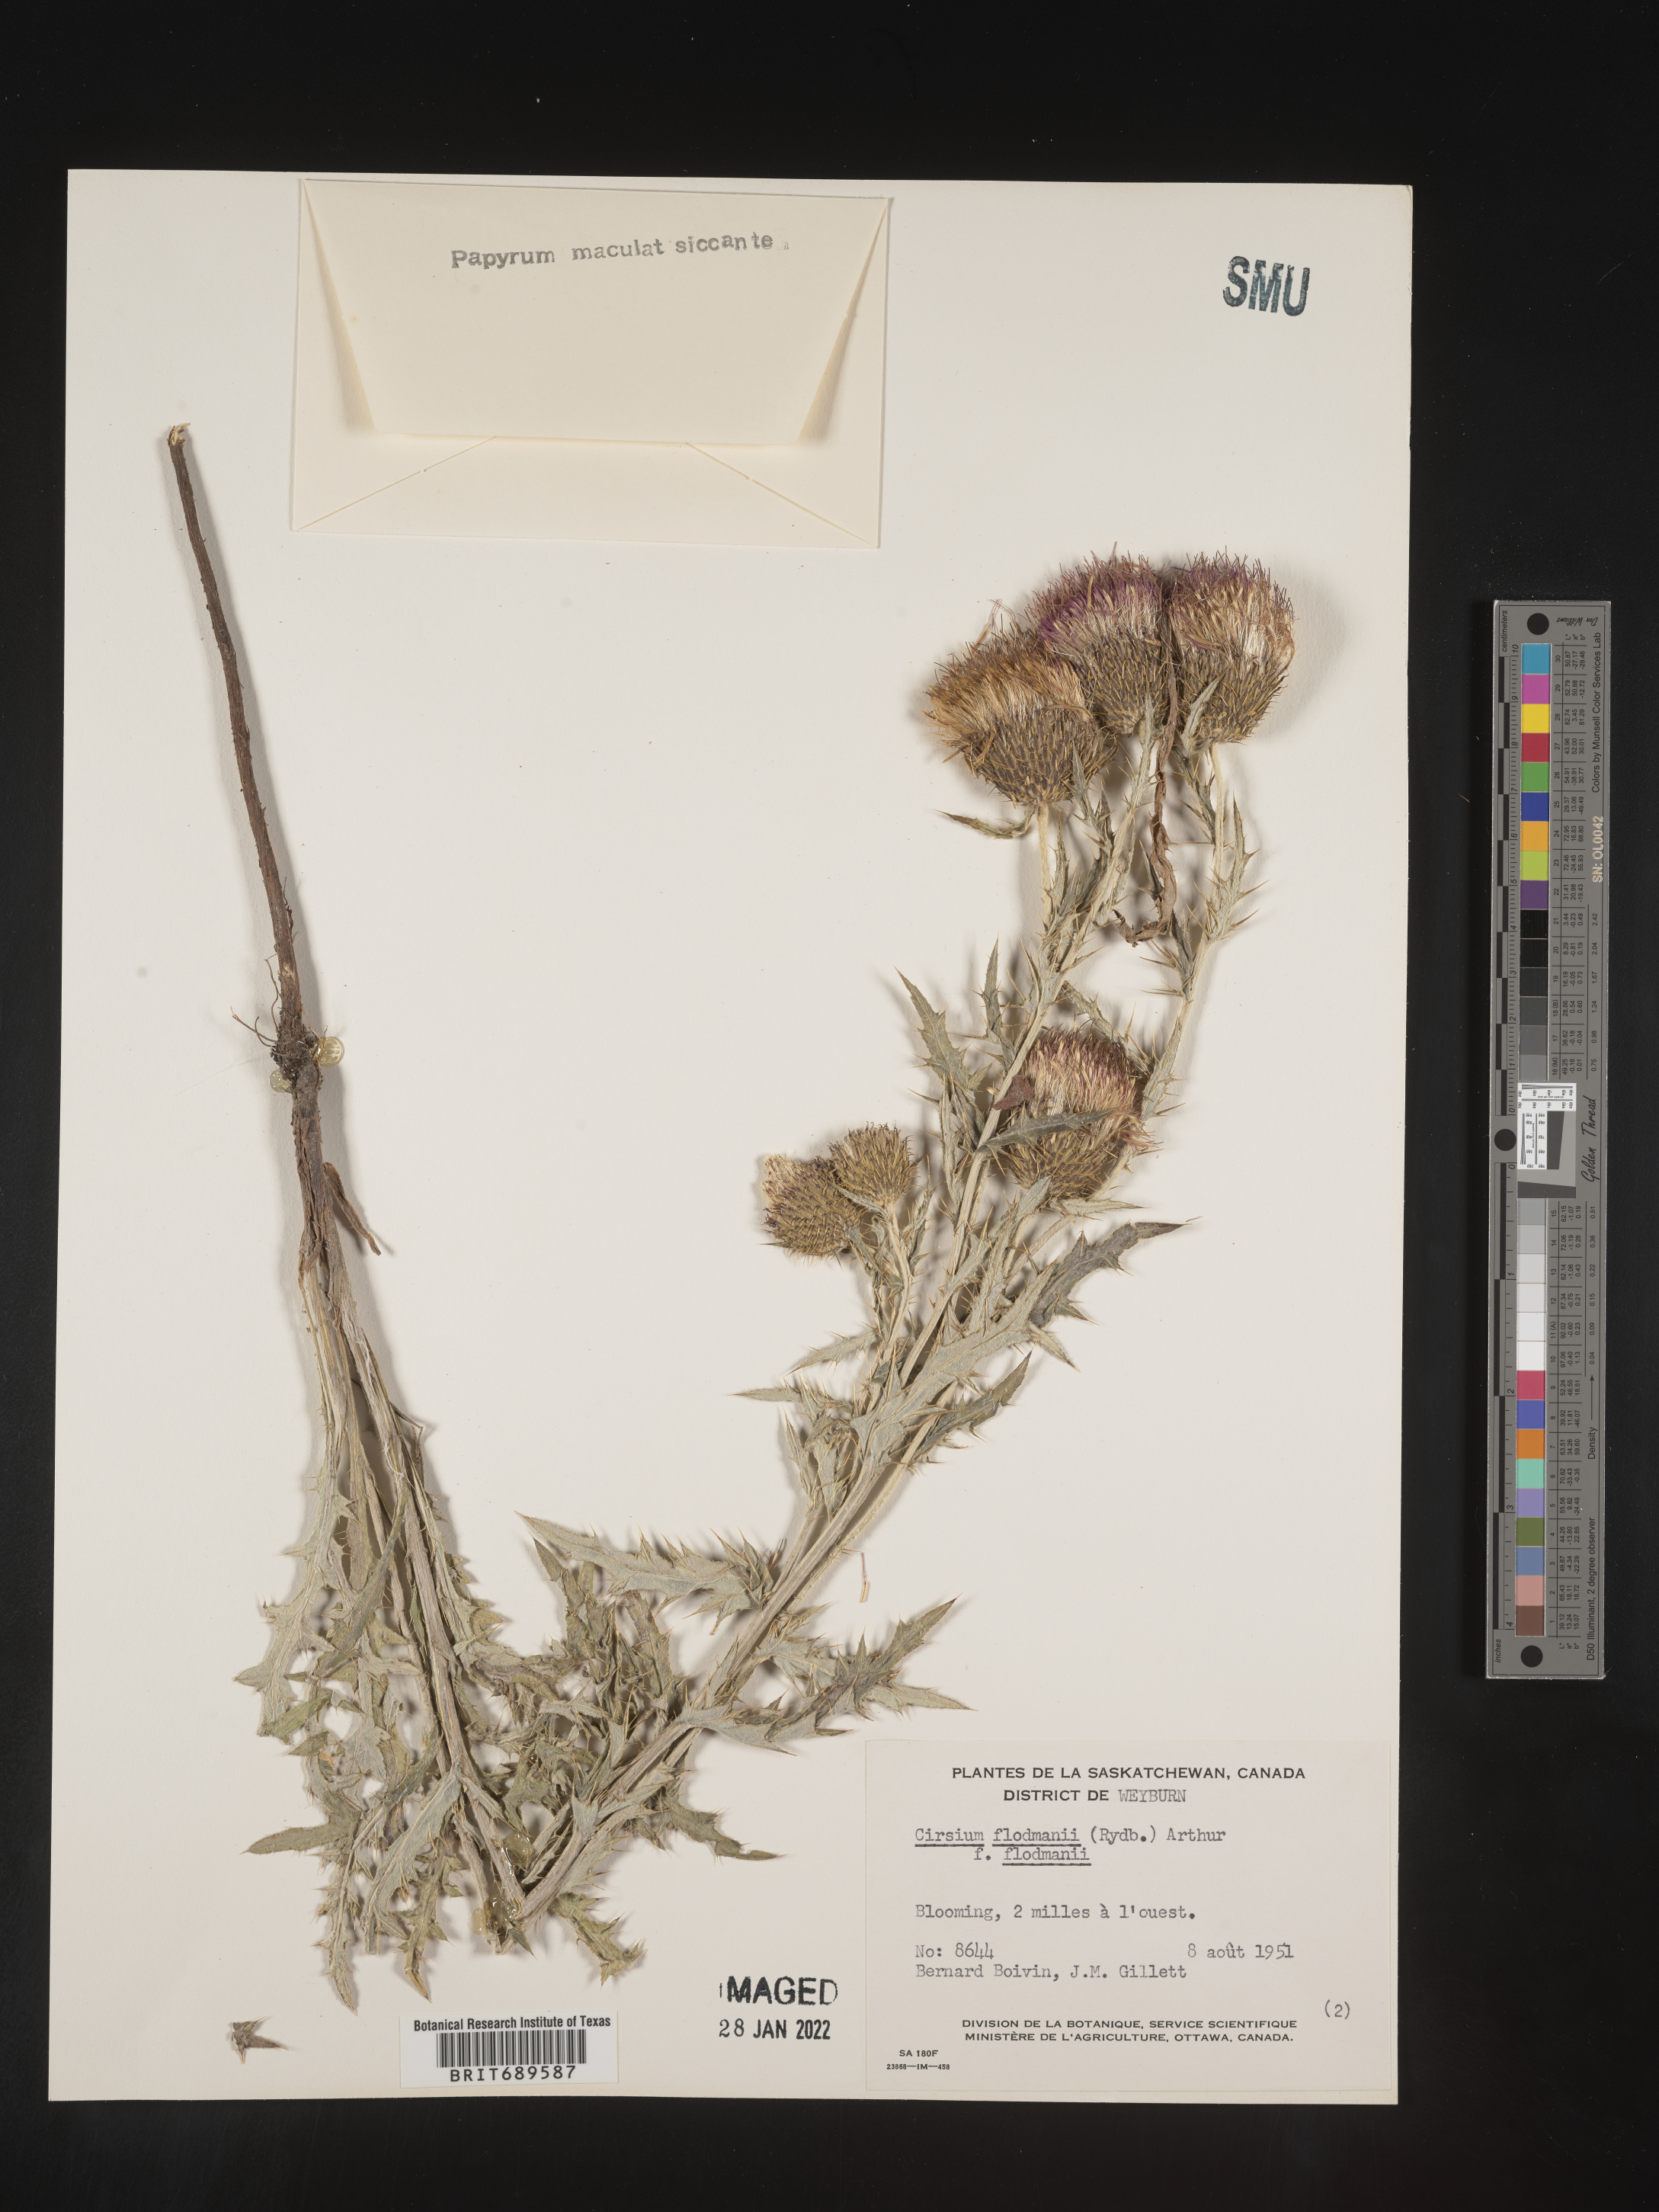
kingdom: Plantae
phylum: Tracheophyta
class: Magnoliopsida
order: Asterales
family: Asteraceae
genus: Cirsium
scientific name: Cirsium flodmanii
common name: Flodman's thistle
